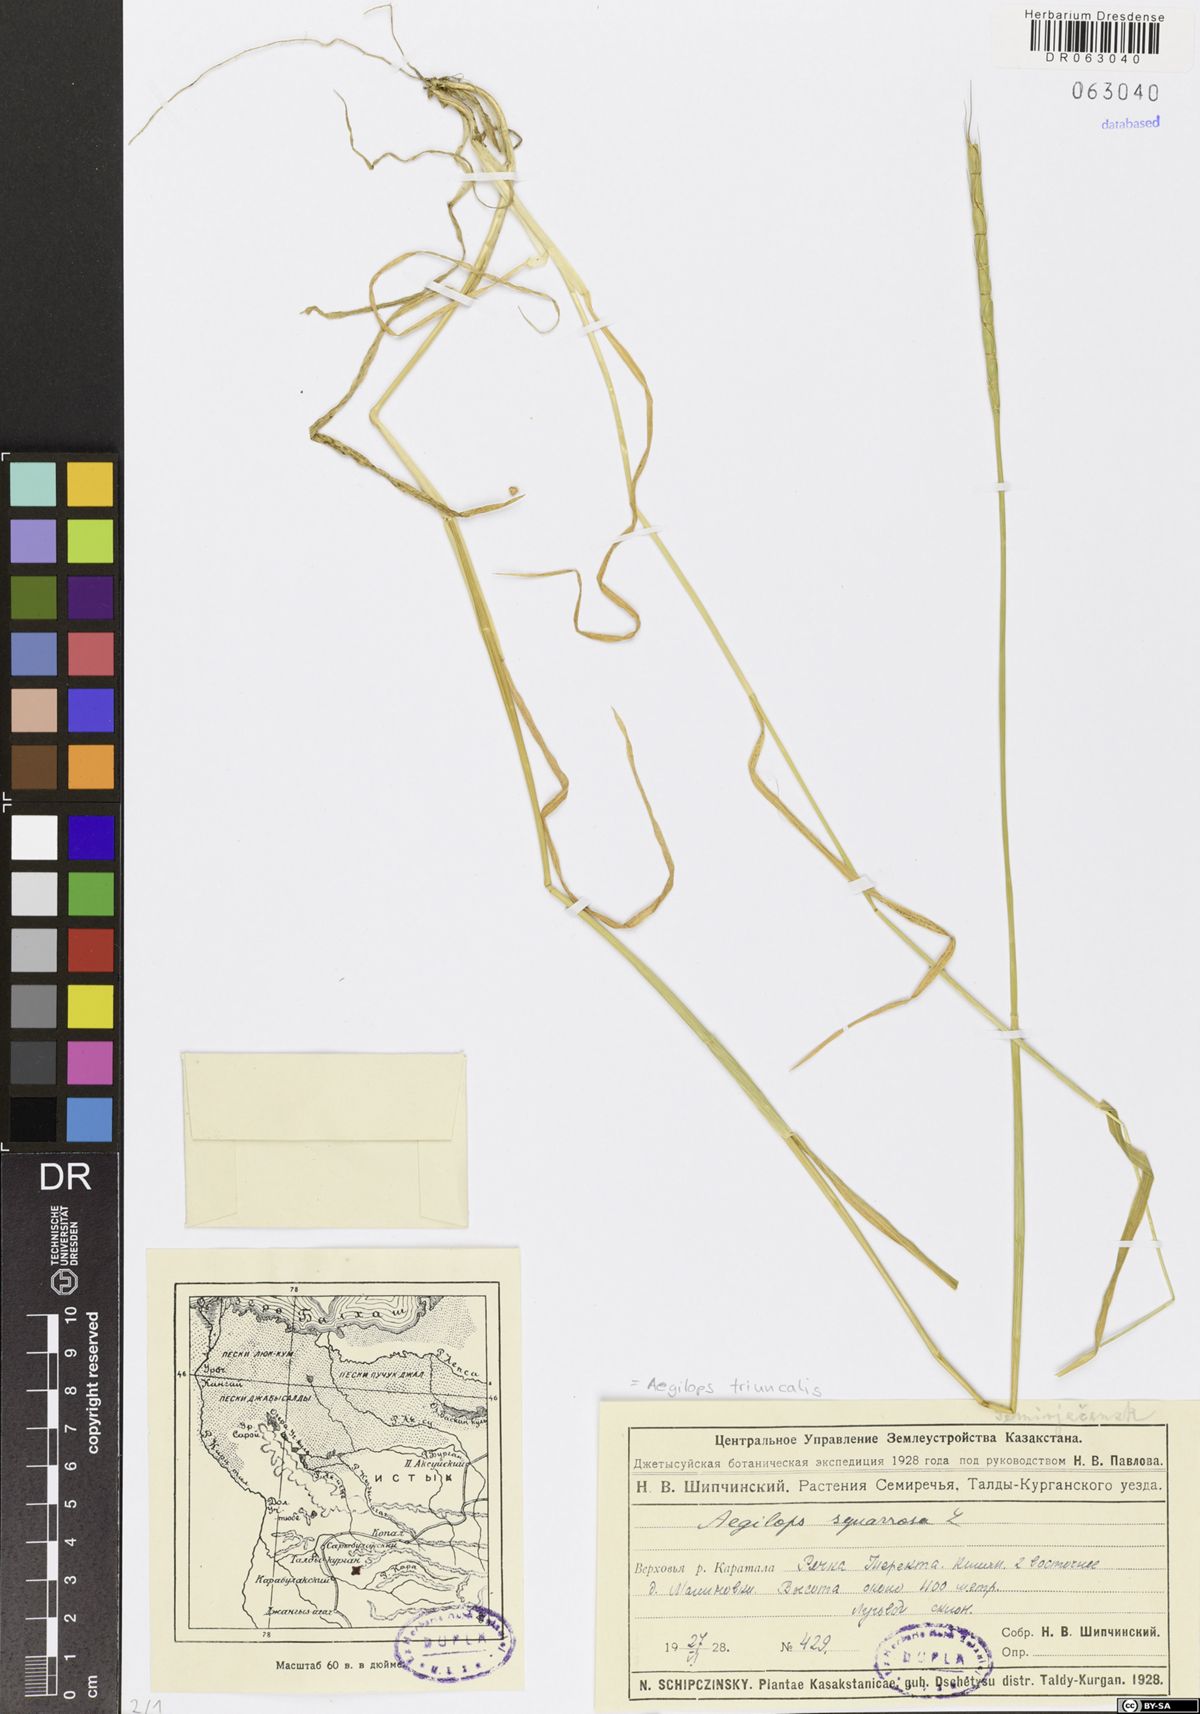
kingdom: Plantae
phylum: Tracheophyta
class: Liliopsida
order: Poales
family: Poaceae
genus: Aegilops
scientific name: Aegilops triuncialis
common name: Barb goat grass
